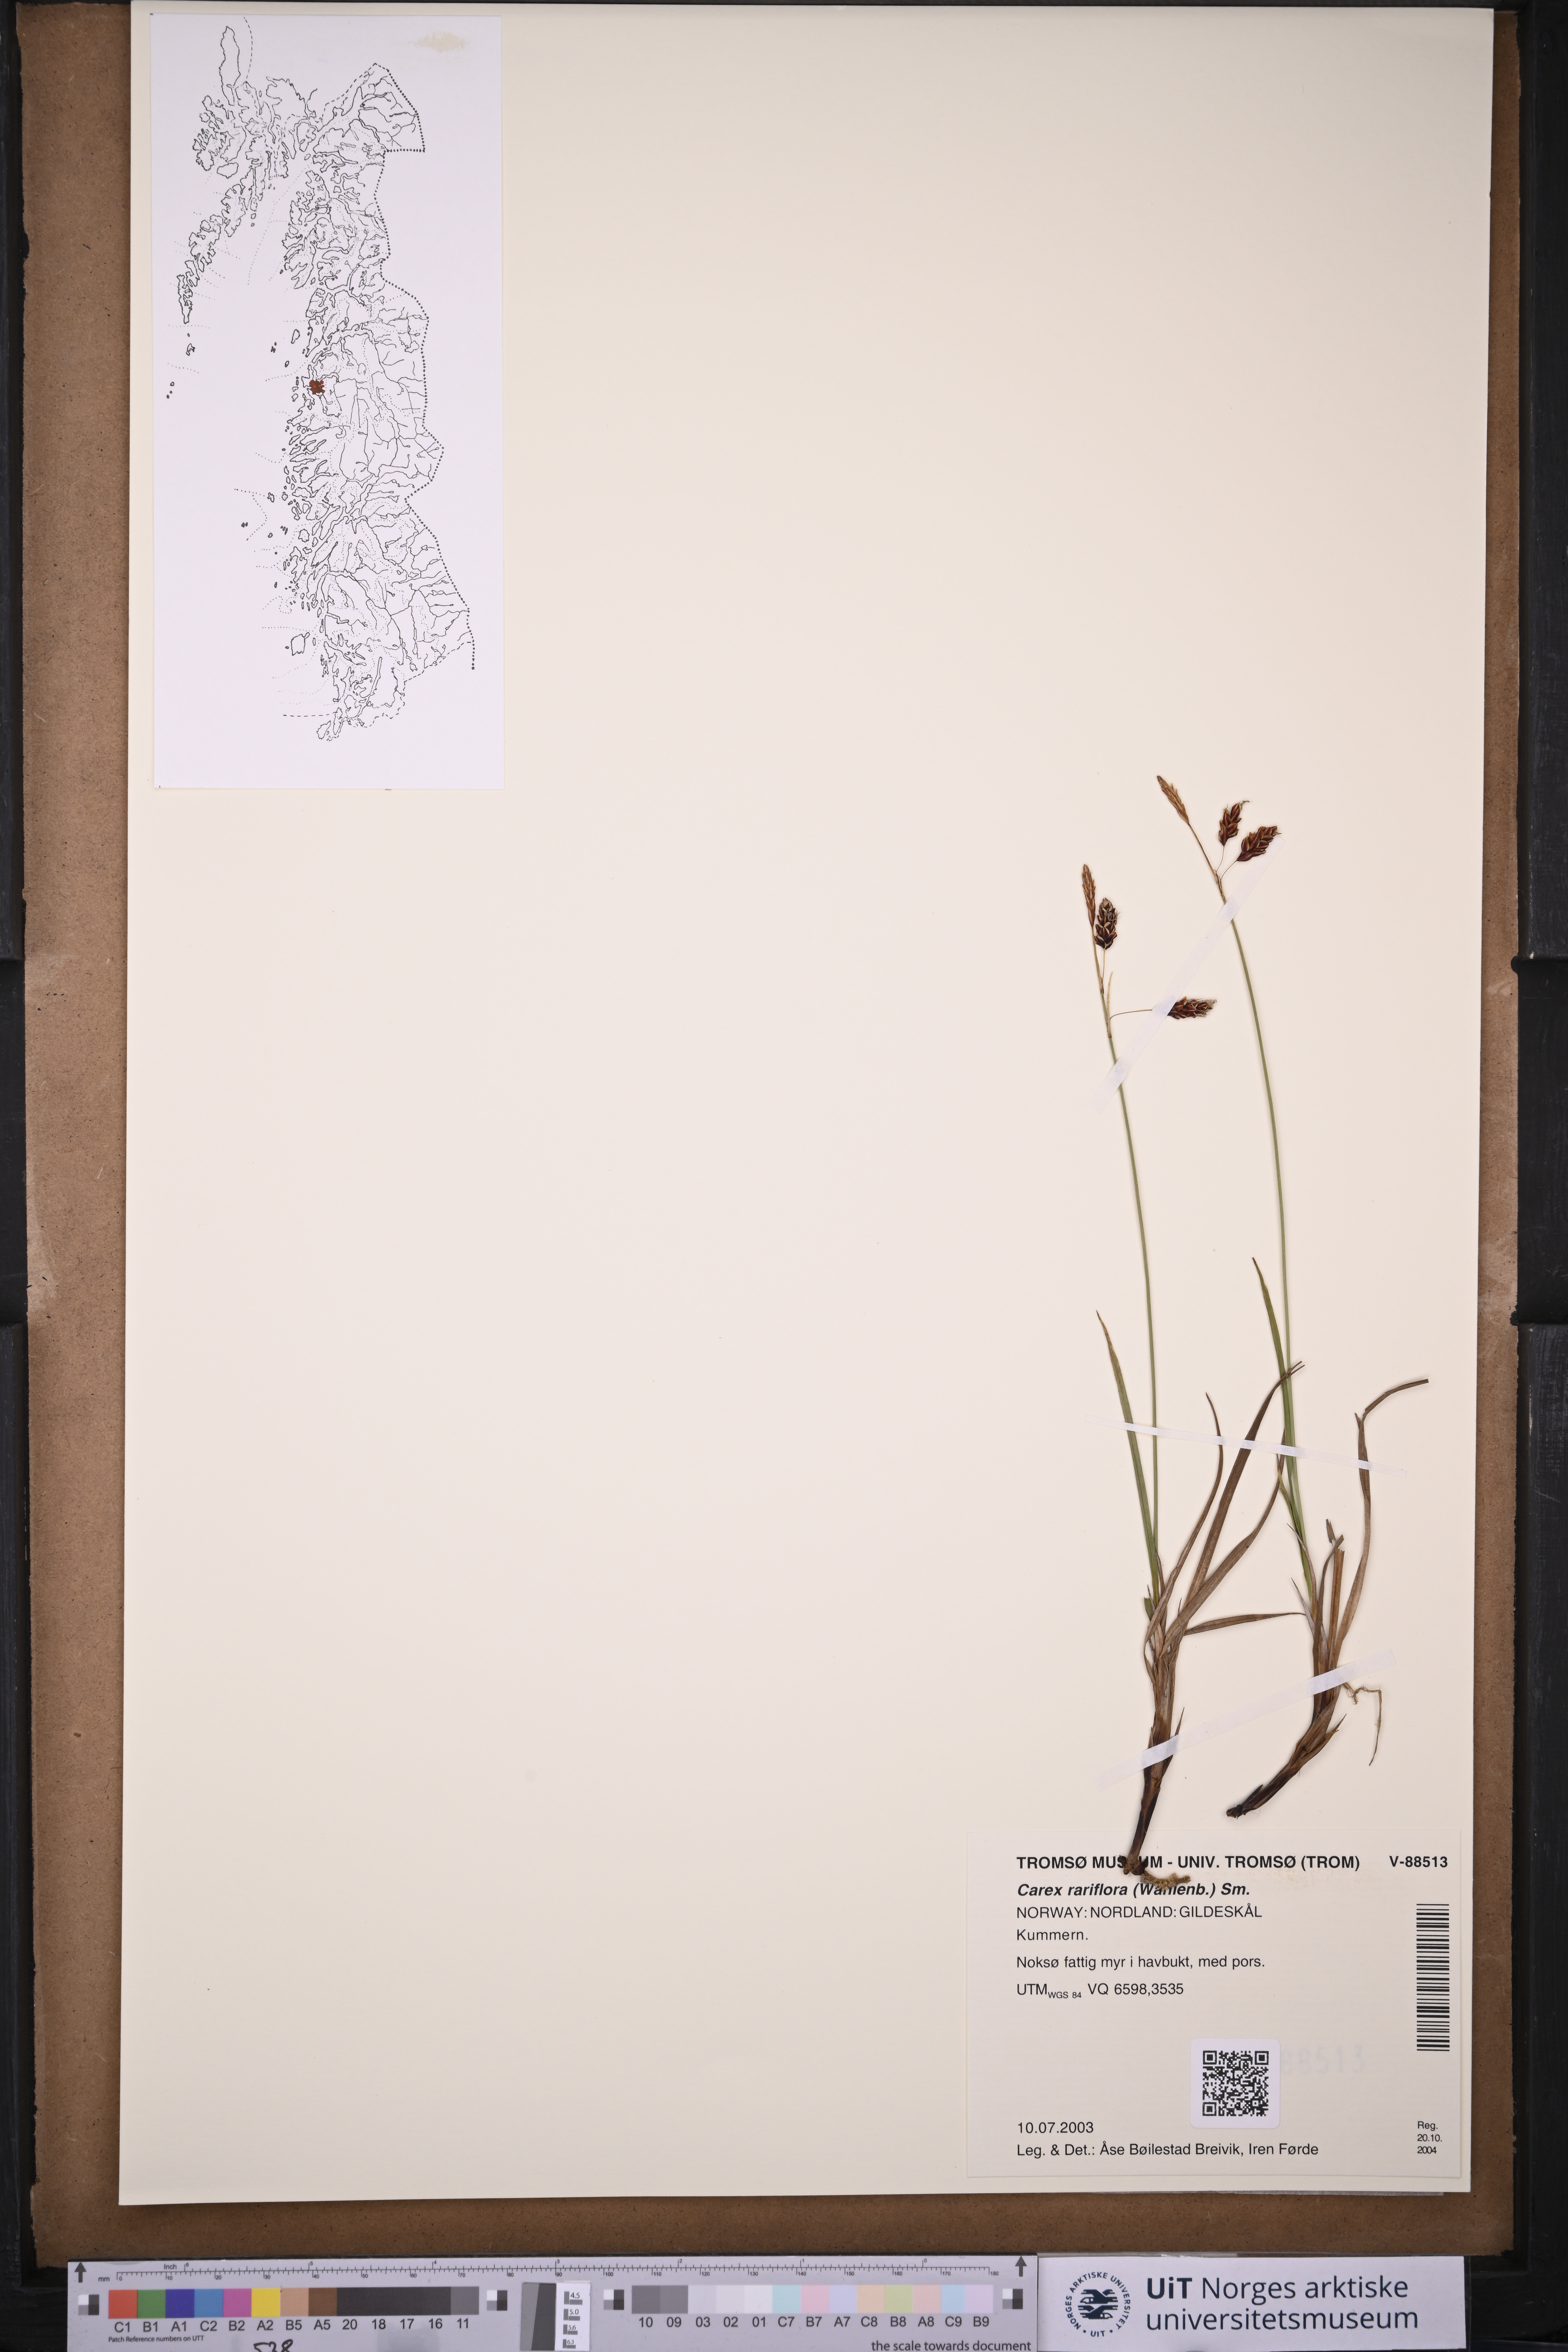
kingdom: Plantae
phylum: Tracheophyta
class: Liliopsida
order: Poales
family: Cyperaceae
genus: Carex
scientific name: Carex rariflora
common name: Loose-flowered alpine sedge
